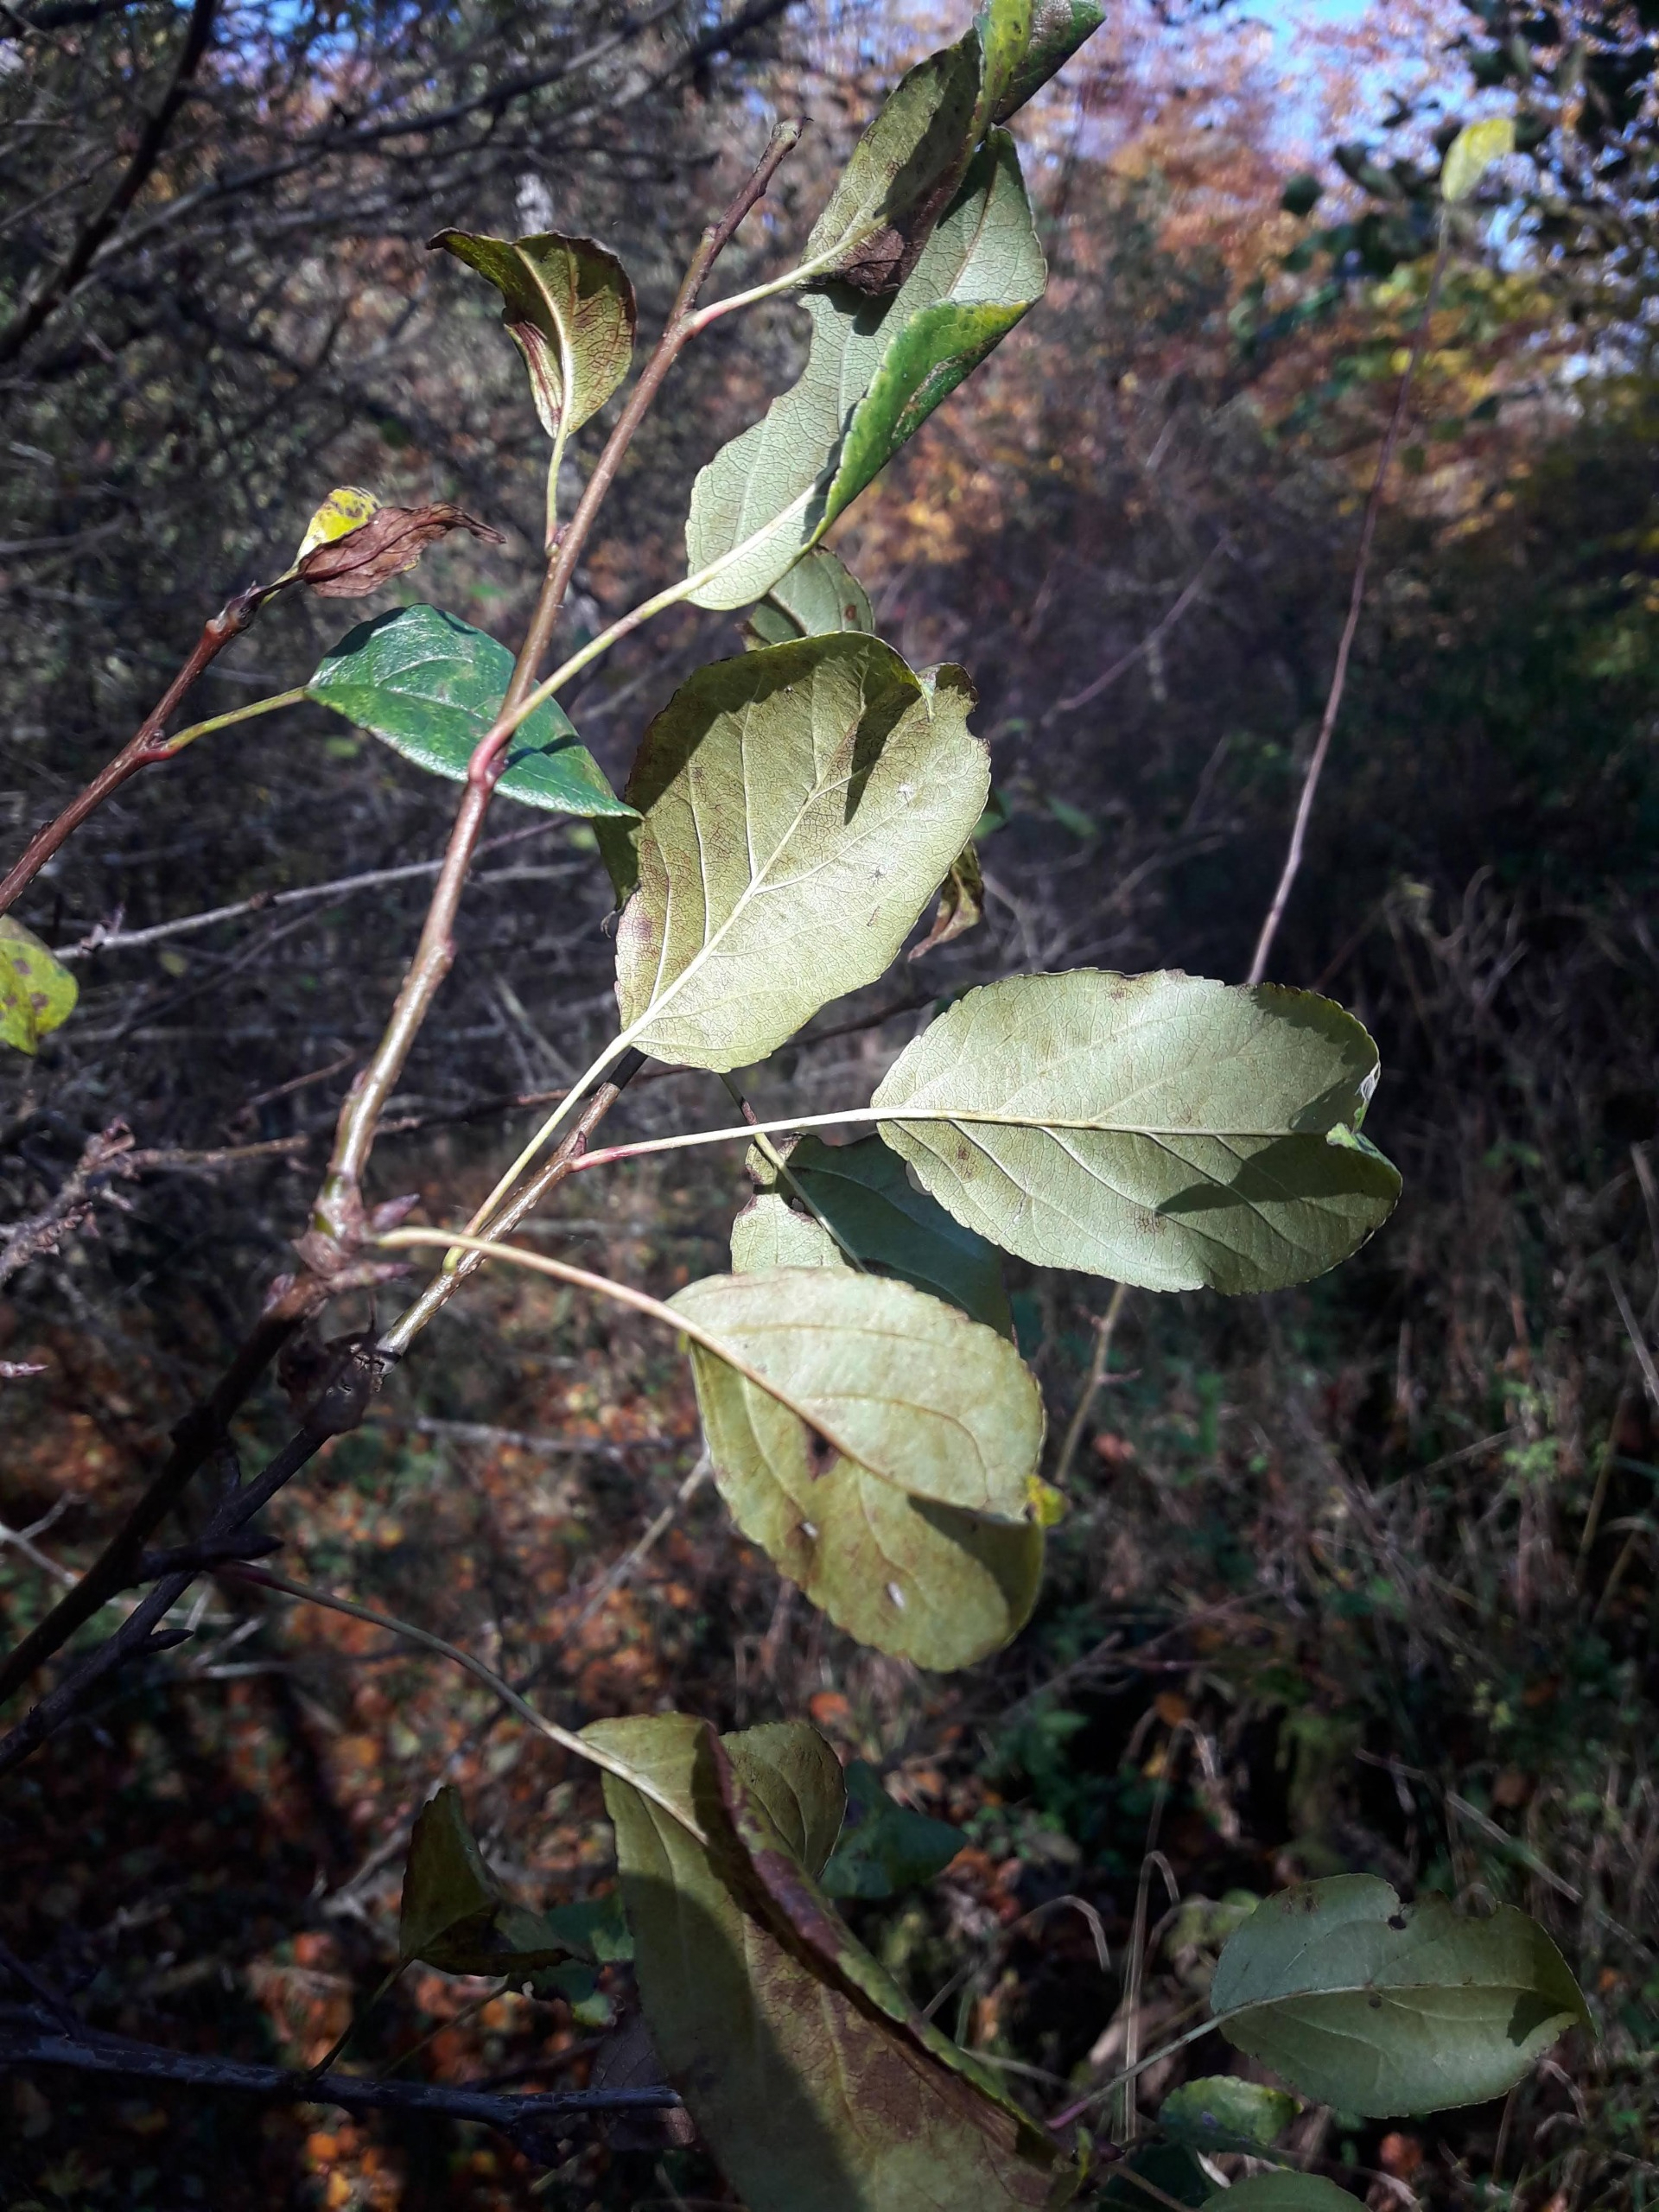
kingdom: Plantae
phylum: Tracheophyta
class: Magnoliopsida
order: Rosales
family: Rosaceae
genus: Malus
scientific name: Malus sylvestris
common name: Skov-æble
